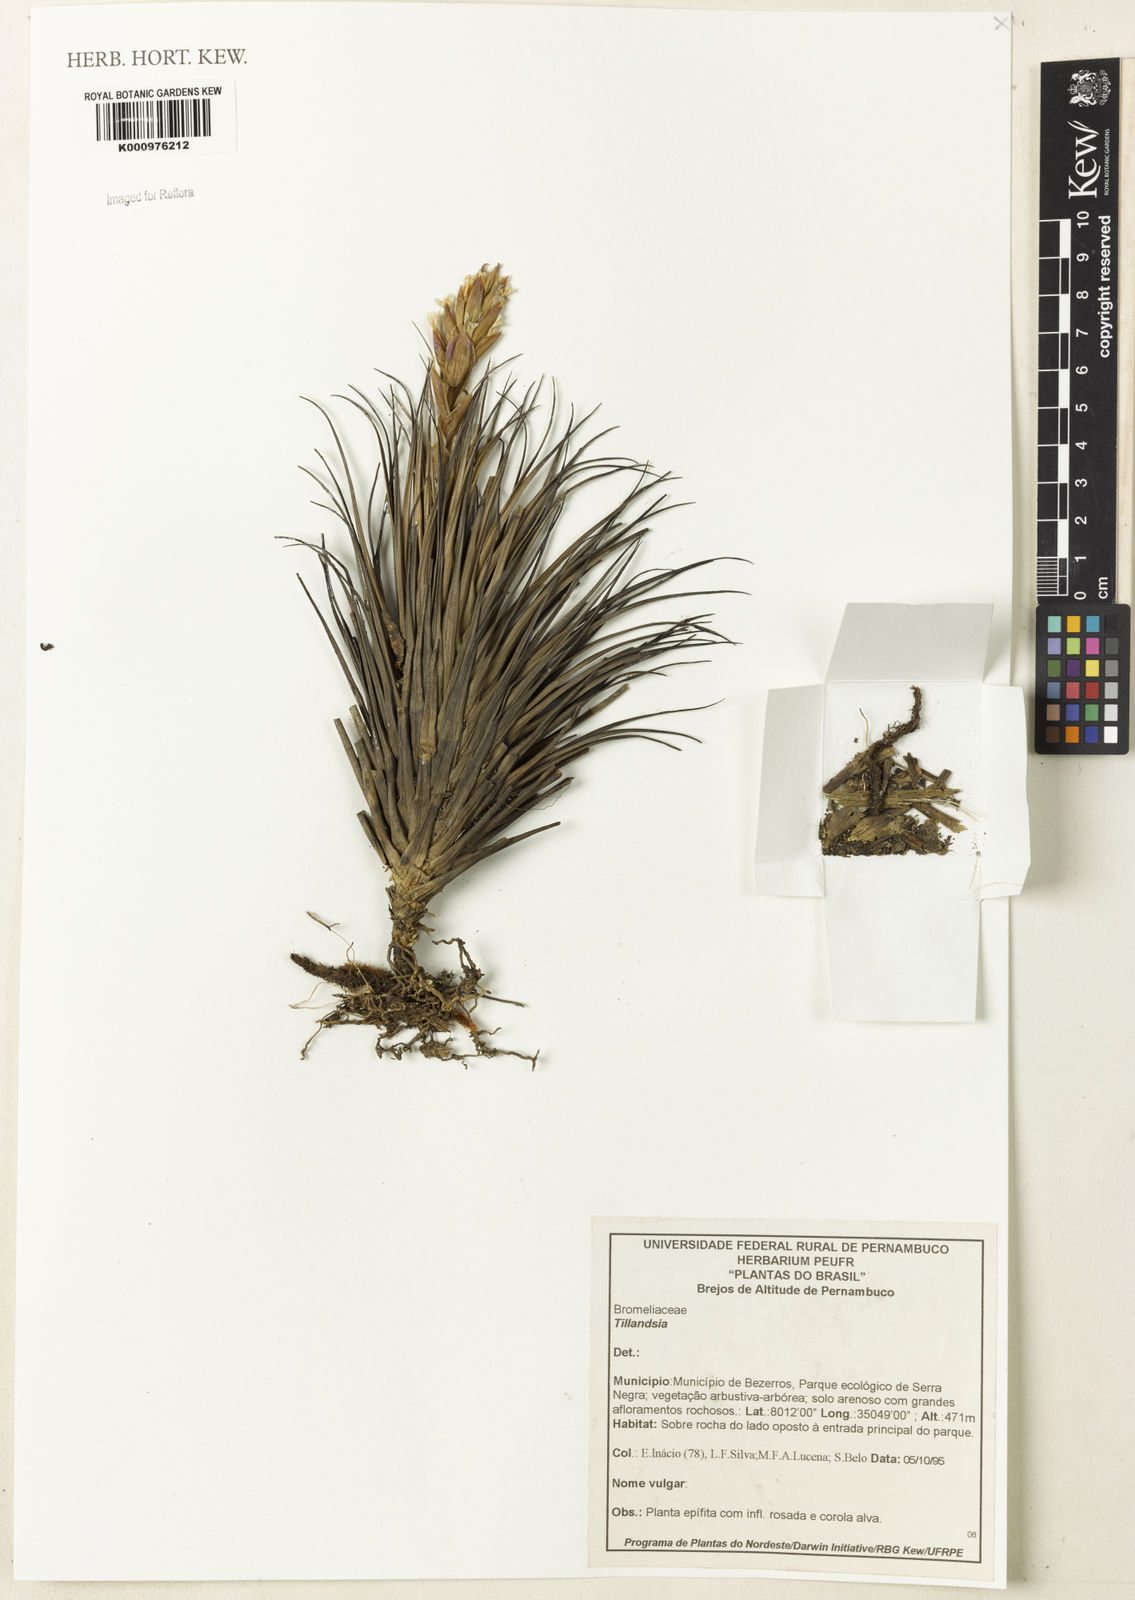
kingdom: Plantae
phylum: Tracheophyta
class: Liliopsida
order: Poales
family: Bromeliaceae
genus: Tillandsia
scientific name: Tillandsia
